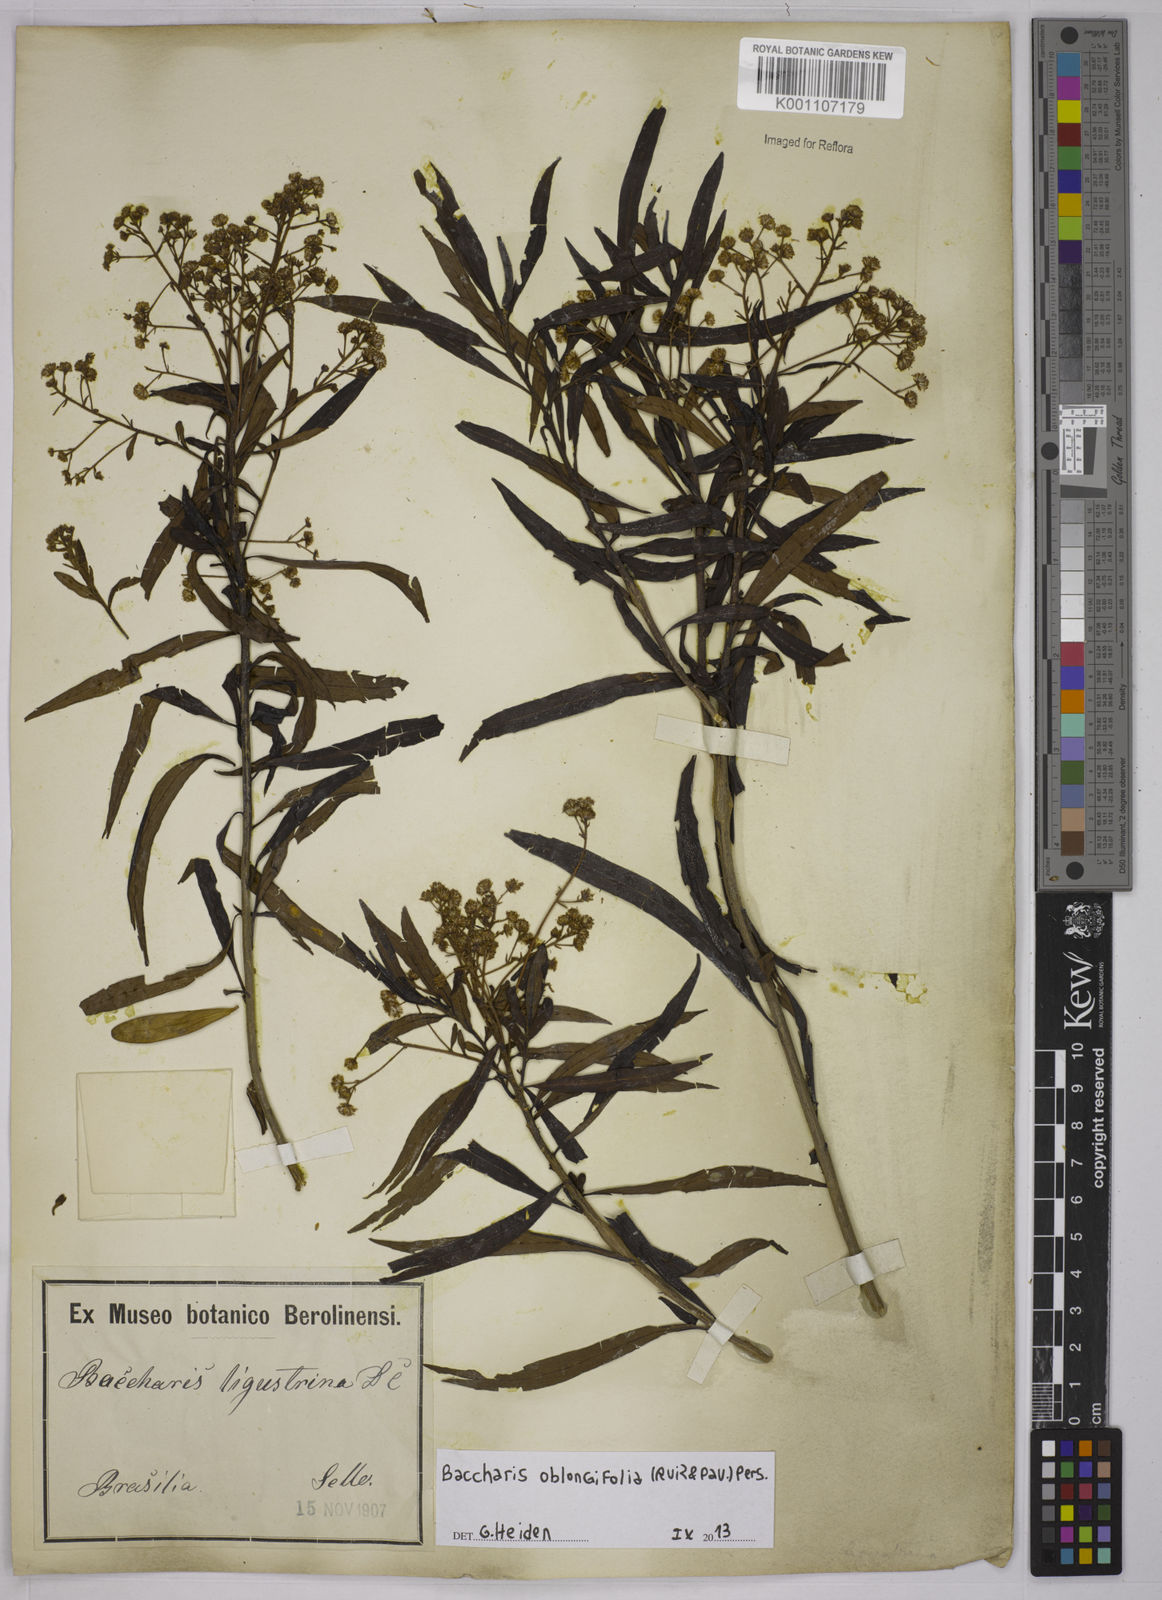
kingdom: Plantae
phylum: Tracheophyta
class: Magnoliopsida
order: Asterales
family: Asteraceae
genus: Baccharis
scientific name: Baccharis oblongifolia
